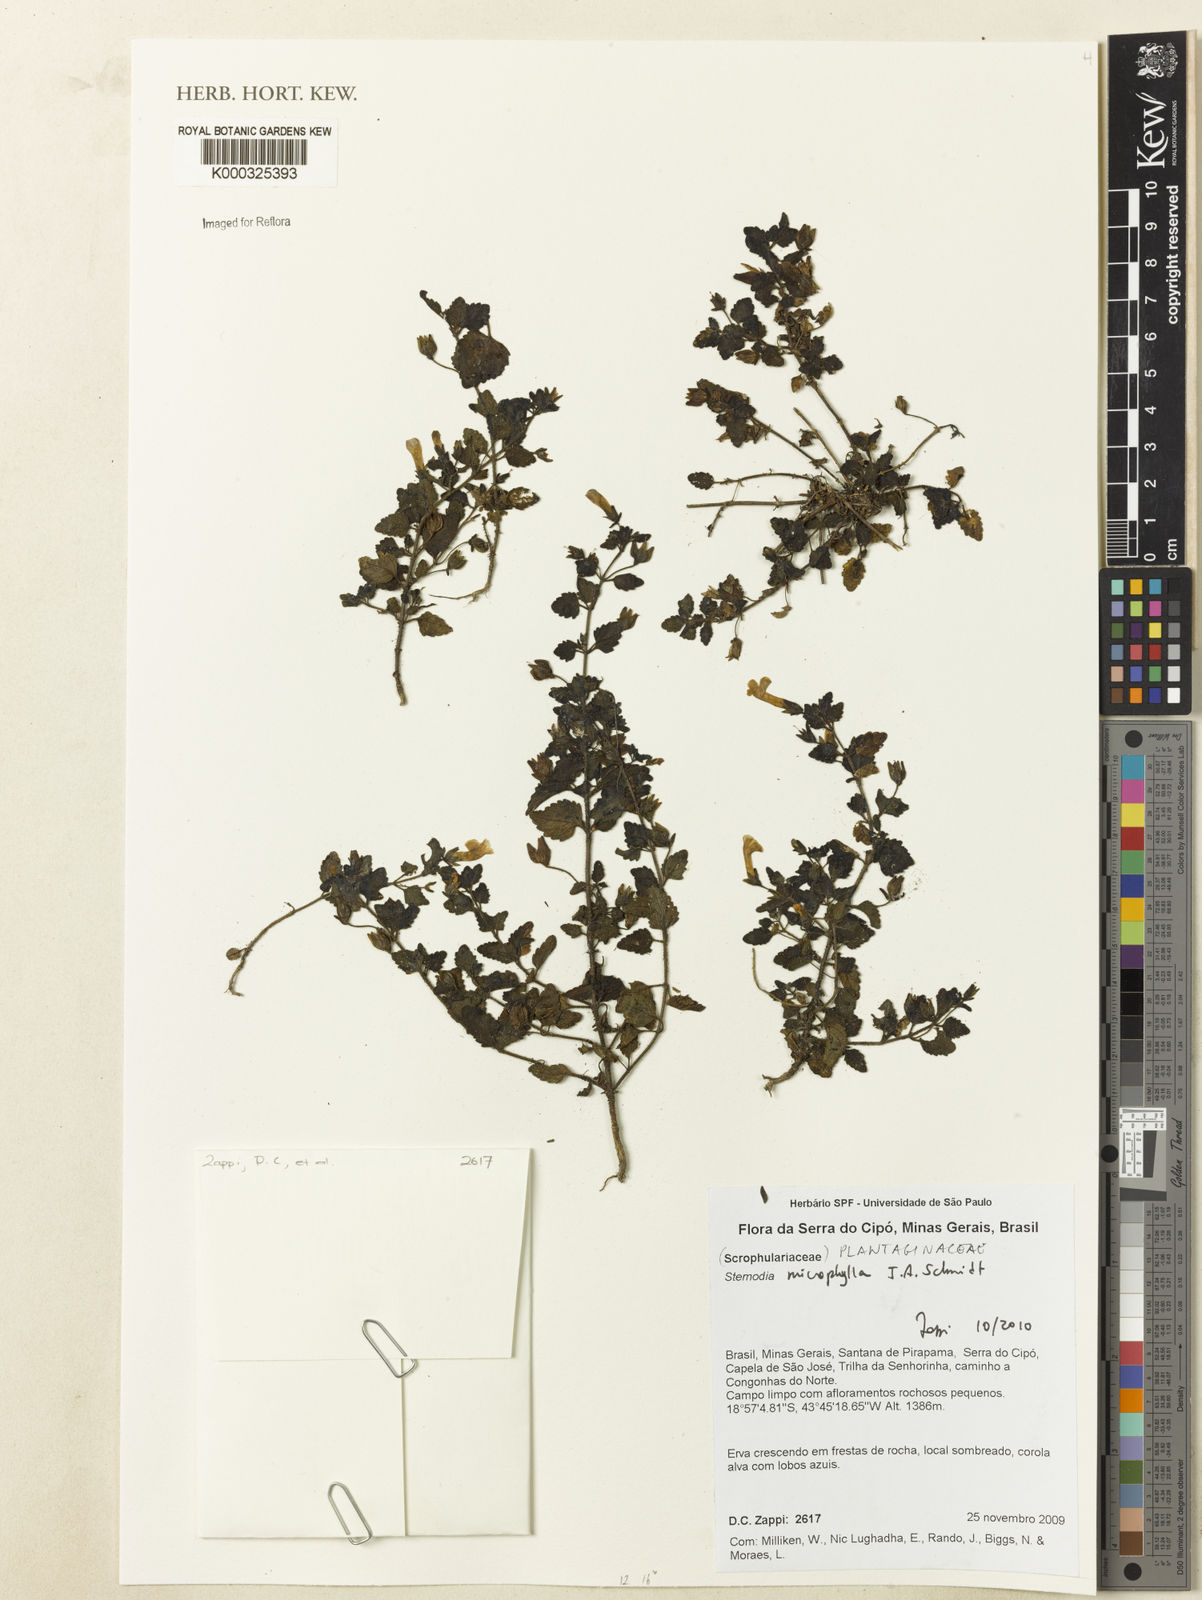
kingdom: Plantae
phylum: Tracheophyta
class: Magnoliopsida
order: Lamiales
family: Plantaginaceae
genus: Umbraria
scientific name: Umbraria microphylla
